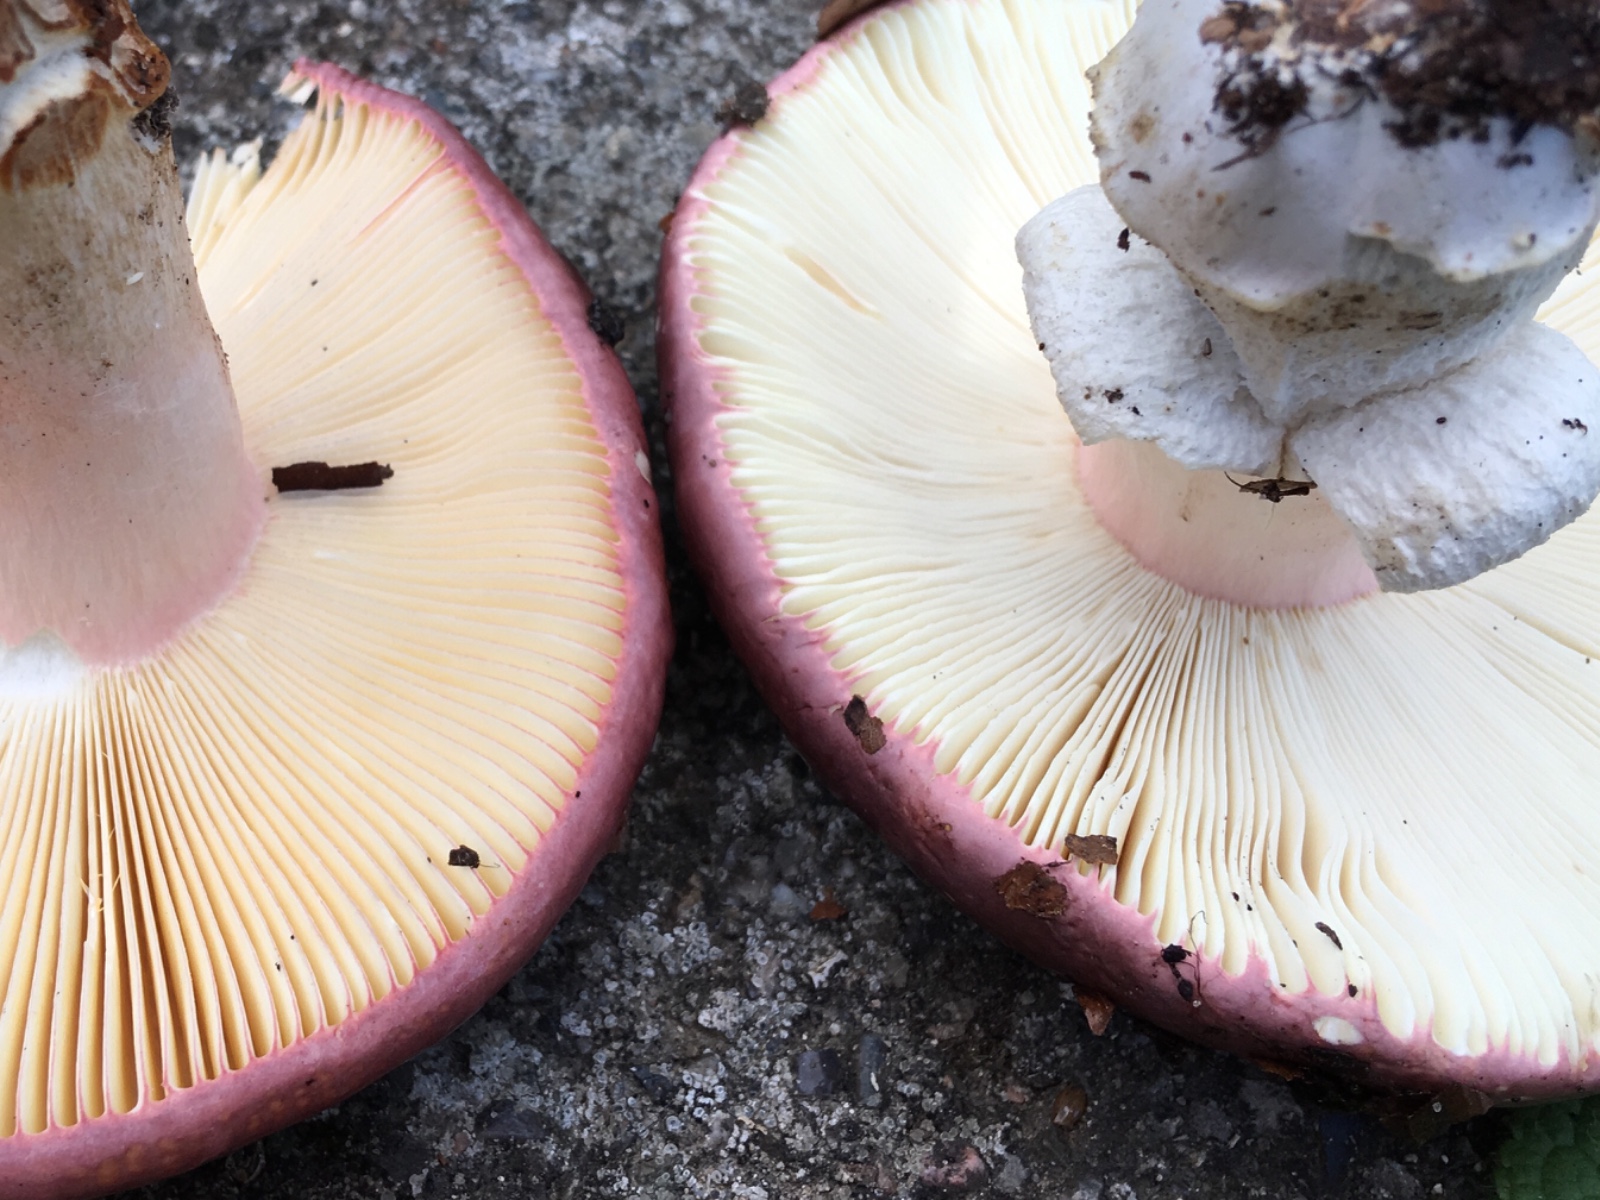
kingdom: Fungi
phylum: Basidiomycota
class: Agaricomycetes
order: Russulales
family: Russulaceae
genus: Russula
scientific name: Russula olivacea
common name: stor skørhat
